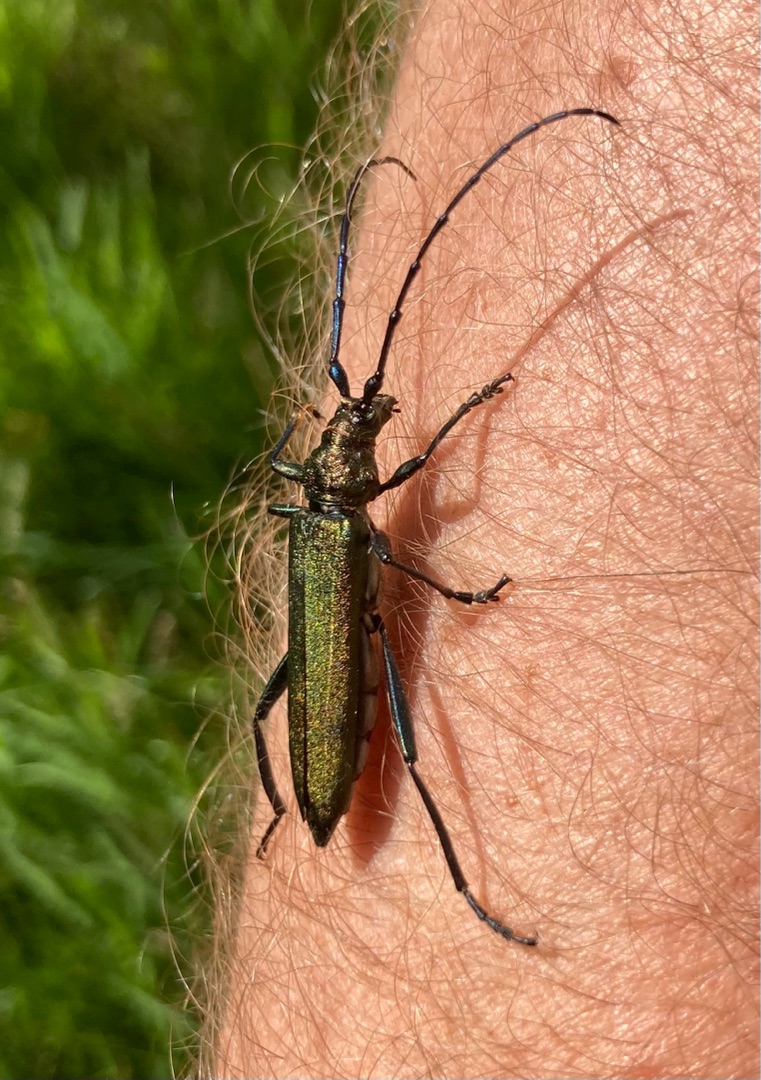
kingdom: Animalia
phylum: Arthropoda
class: Insecta
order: Coleoptera
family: Cerambycidae
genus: Aromia
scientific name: Aromia moschata
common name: Moskusbuk
